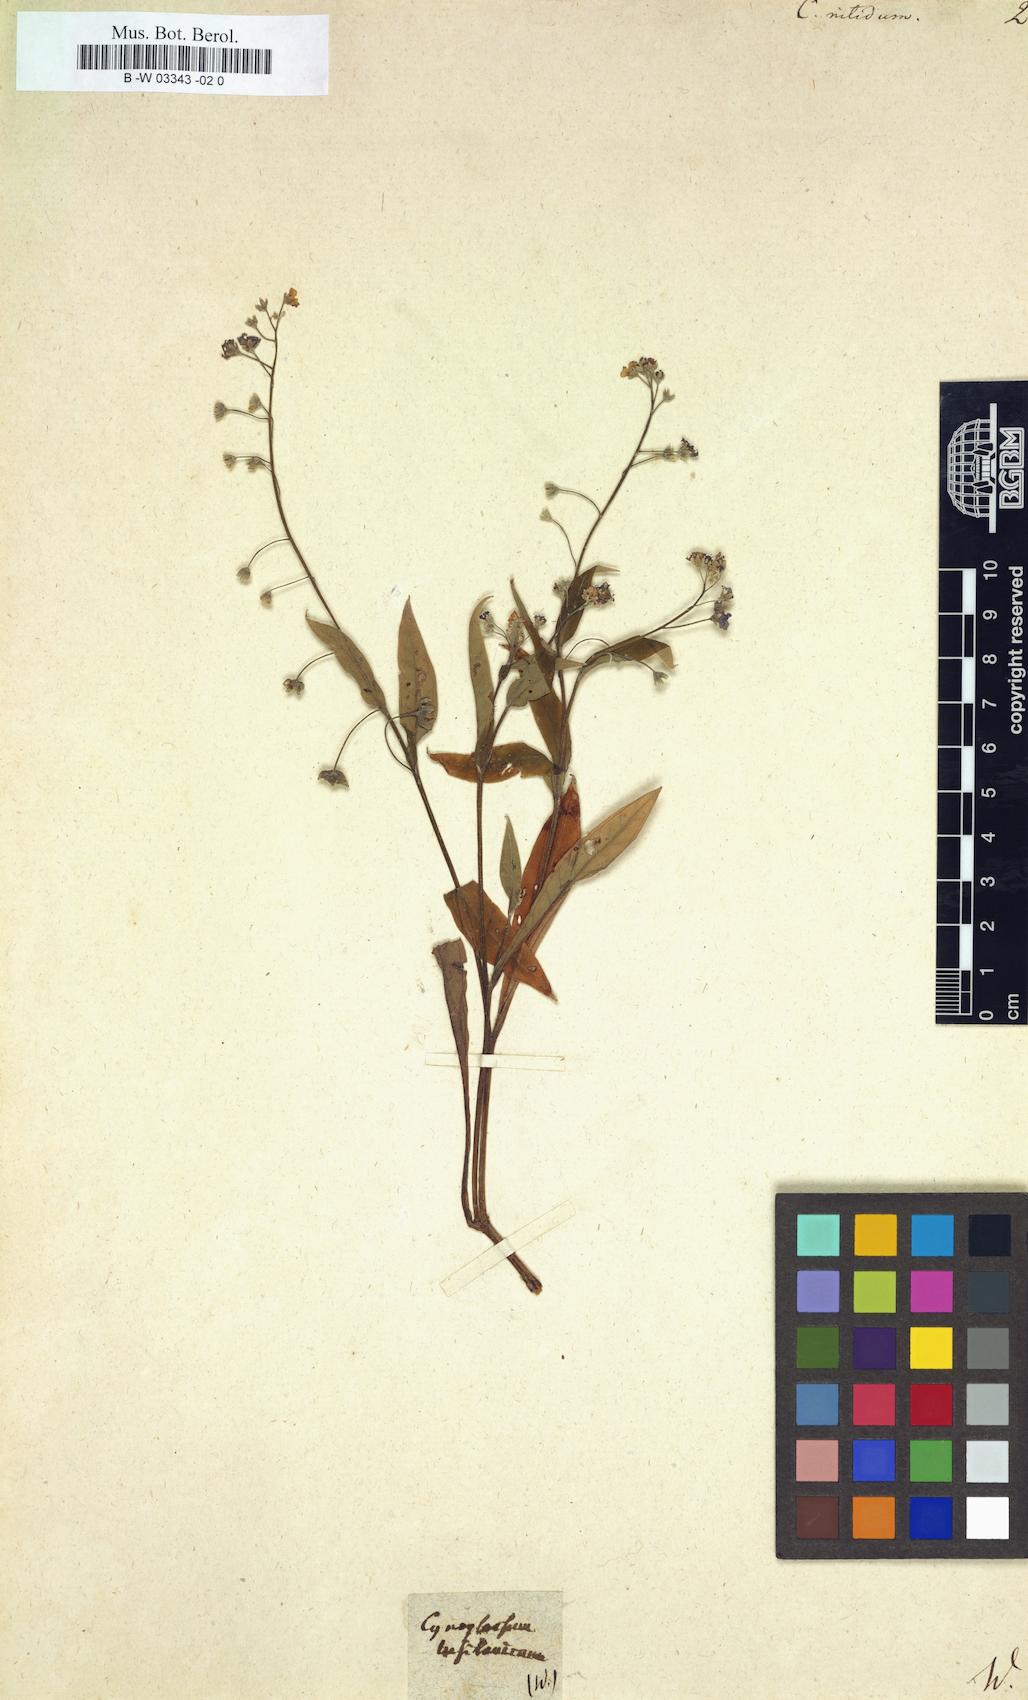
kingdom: Plantae
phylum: Tracheophyta
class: Magnoliopsida
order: Boraginales
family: Boraginaceae
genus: Omphalodes
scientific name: Omphalodes nitida
